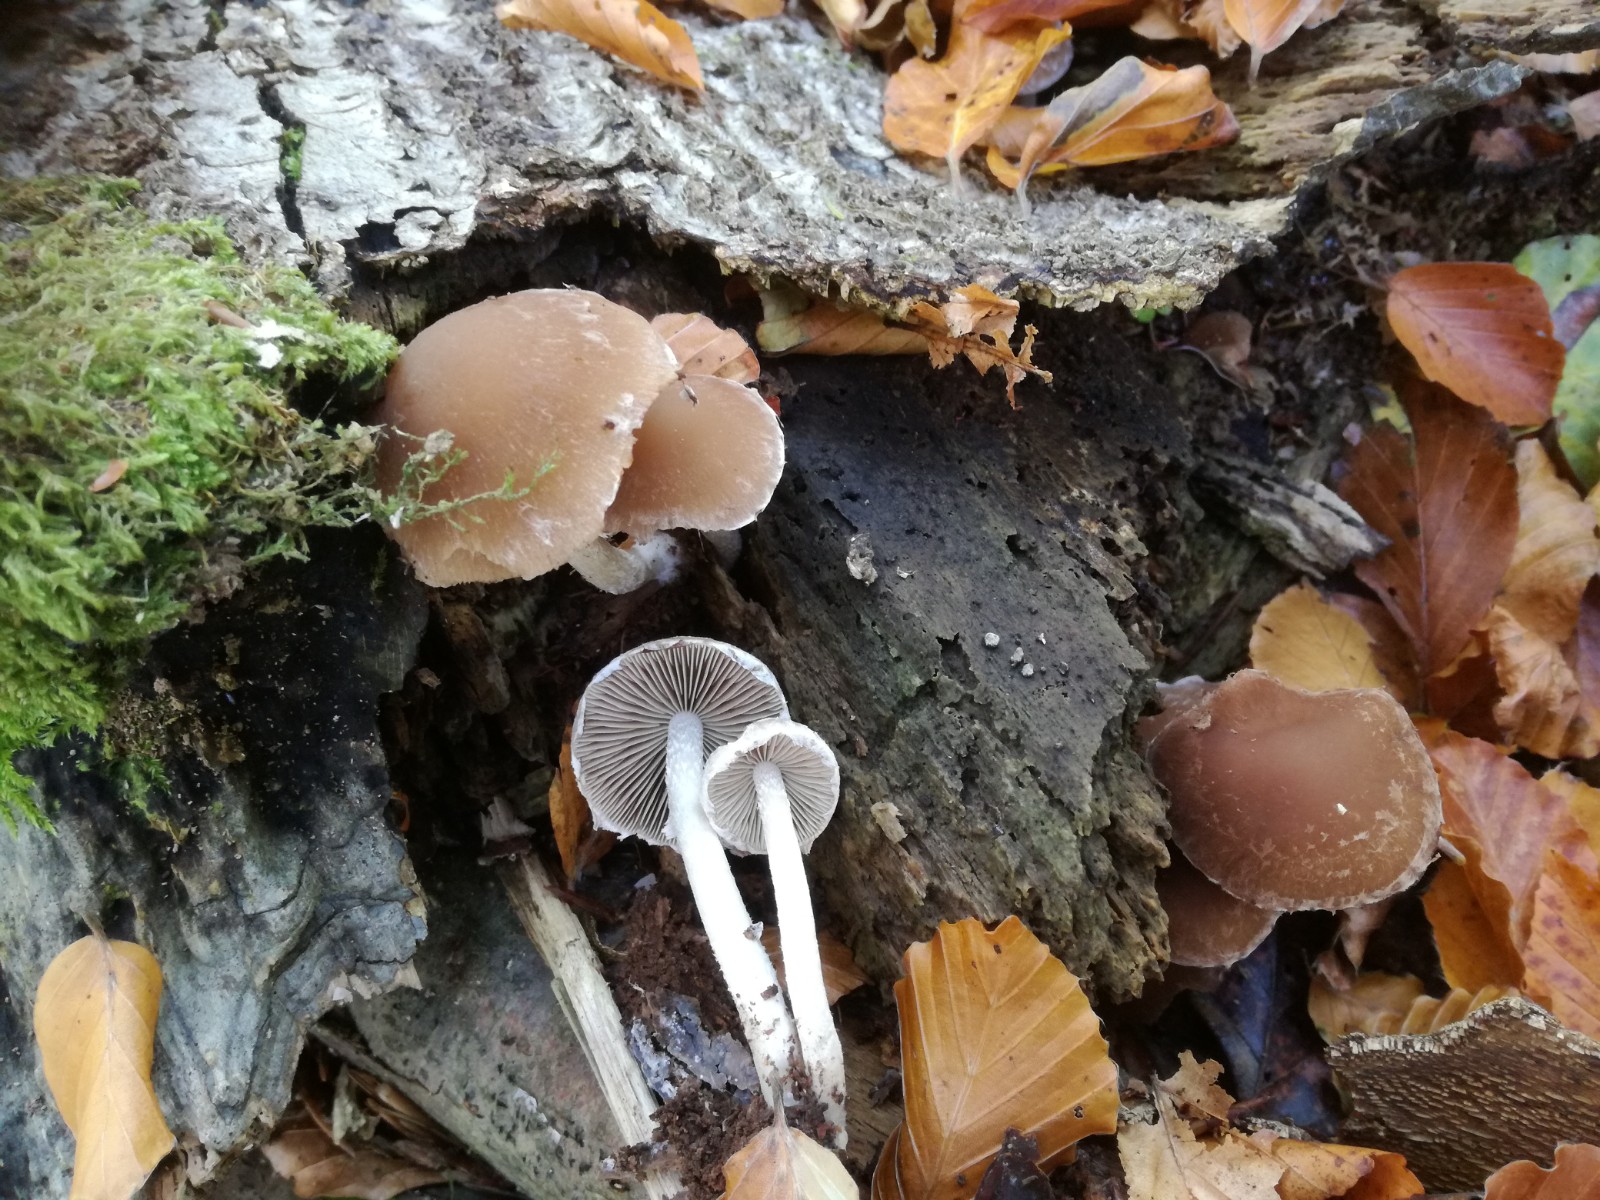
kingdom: Fungi
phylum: Basidiomycota
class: Agaricomycetes
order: Agaricales
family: Psathyrellaceae
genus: Psathyrella
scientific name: Psathyrella spintrigeroides
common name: tandet mørkhat
